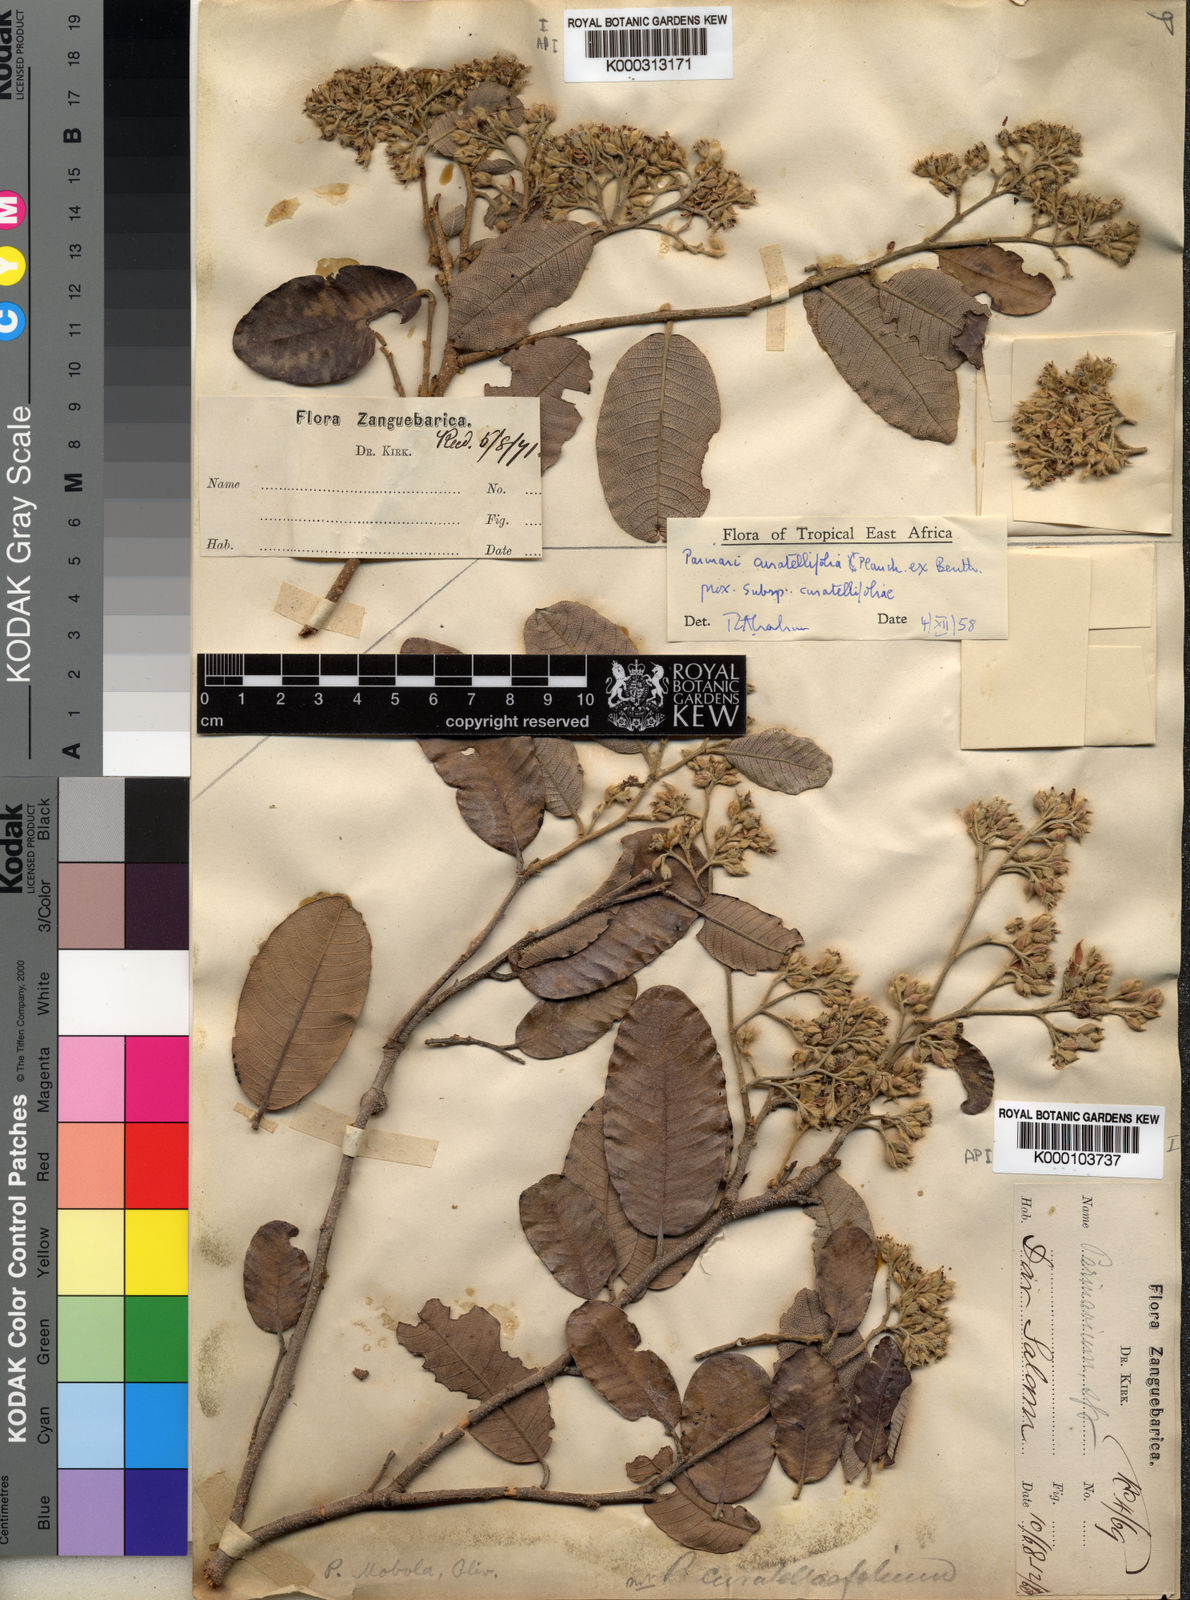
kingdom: Plantae
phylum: Tracheophyta
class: Magnoliopsida
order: Malpighiales
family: Chrysobalanaceae
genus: Parinari
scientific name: Parinari curatellifolia
